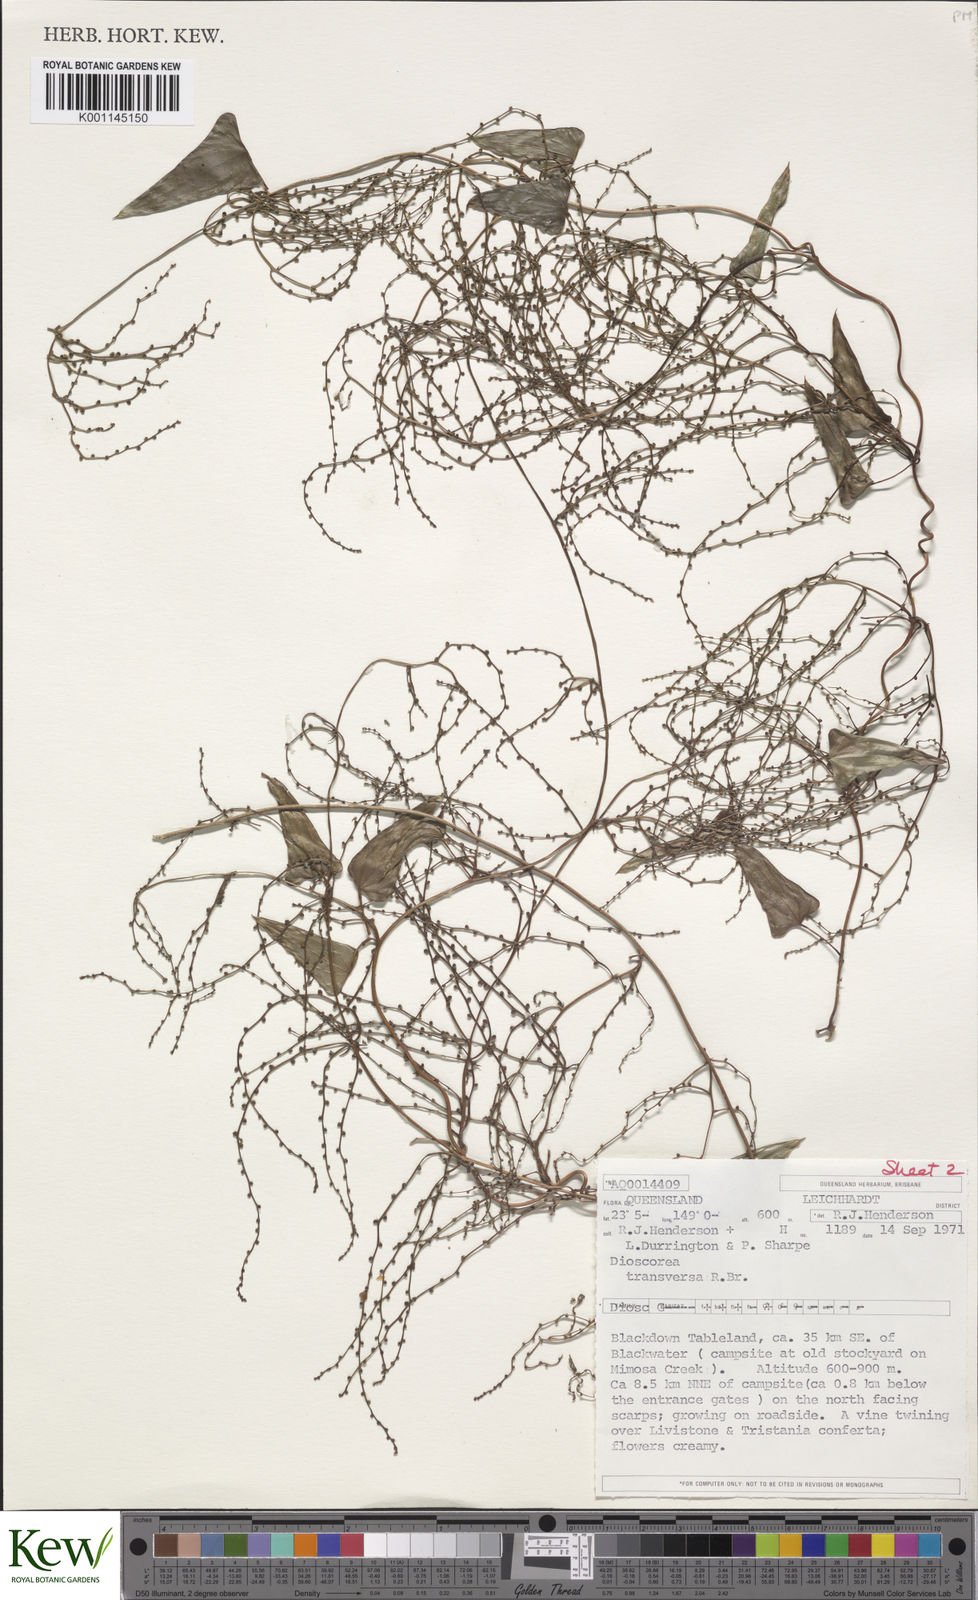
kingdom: Plantae
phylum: Tracheophyta
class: Liliopsida
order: Dioscoreales
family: Dioscoreaceae
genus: Dioscorea
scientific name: Dioscorea transversa
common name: Long yam
